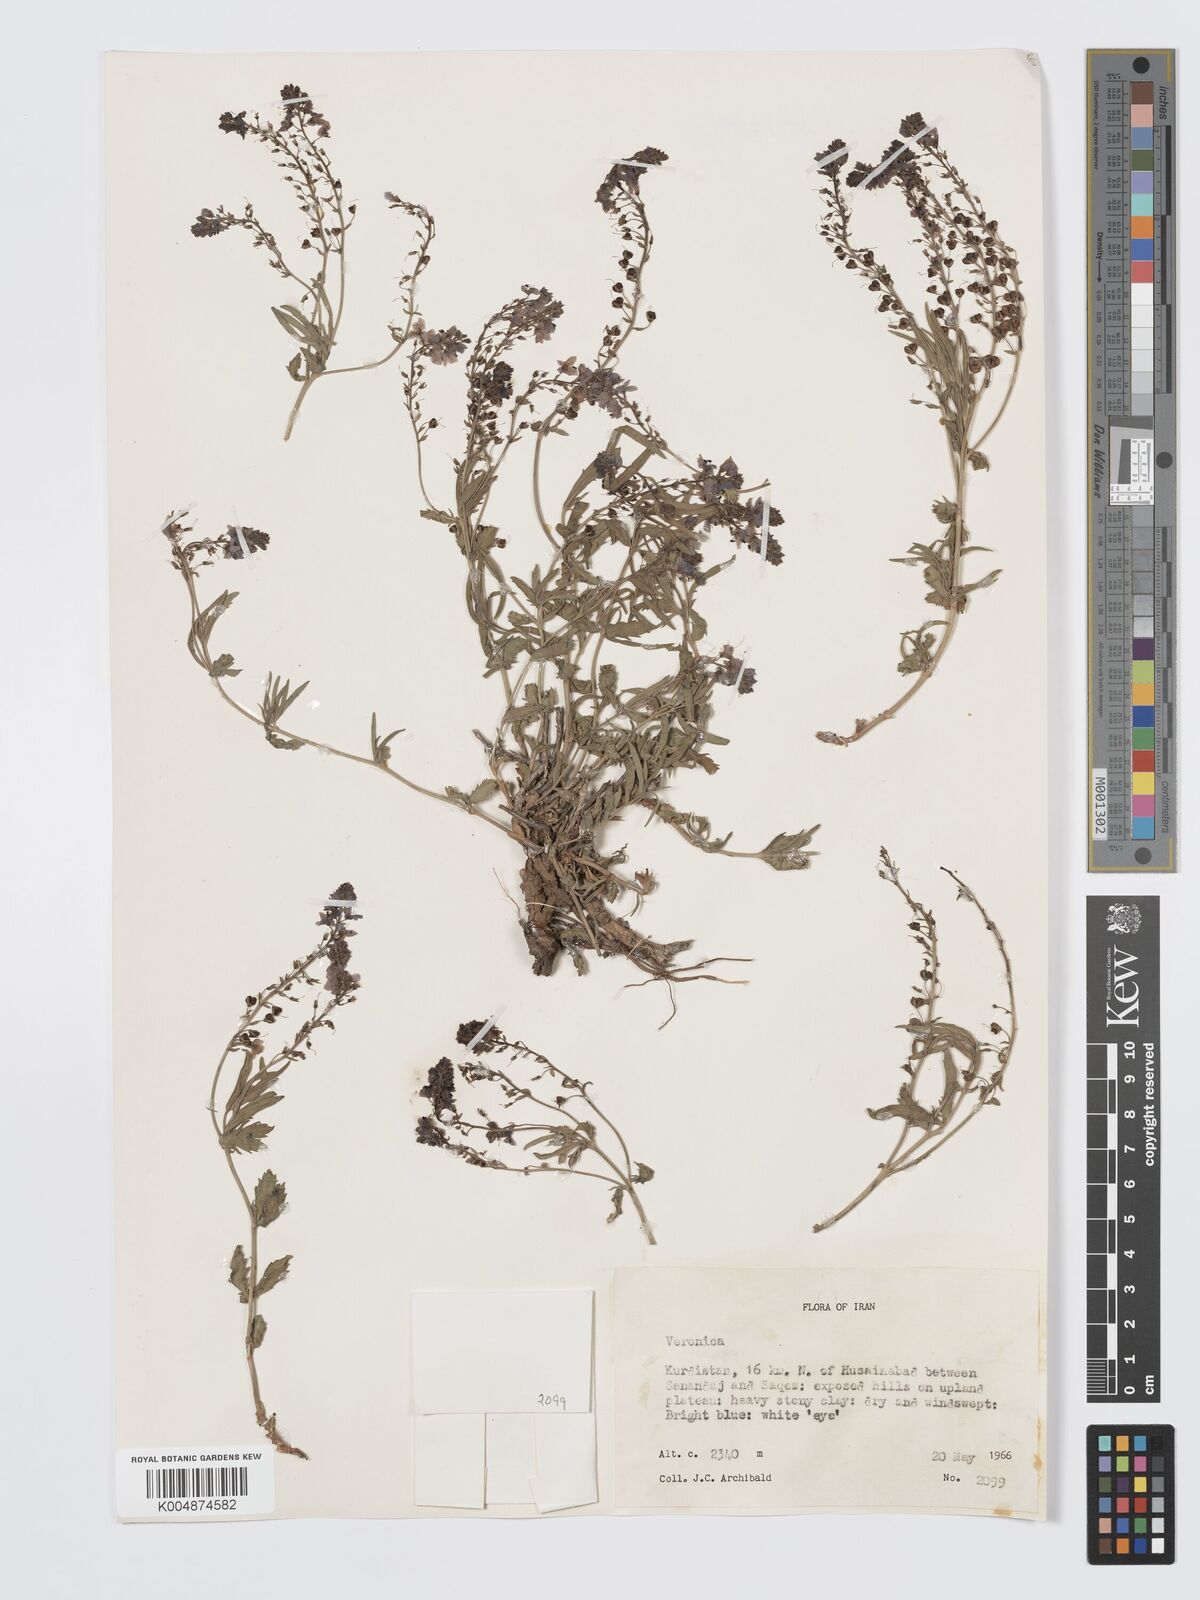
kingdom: Plantae
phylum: Tracheophyta
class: Magnoliopsida
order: Lamiales
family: Plantaginaceae
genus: Veronica
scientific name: Veronica
